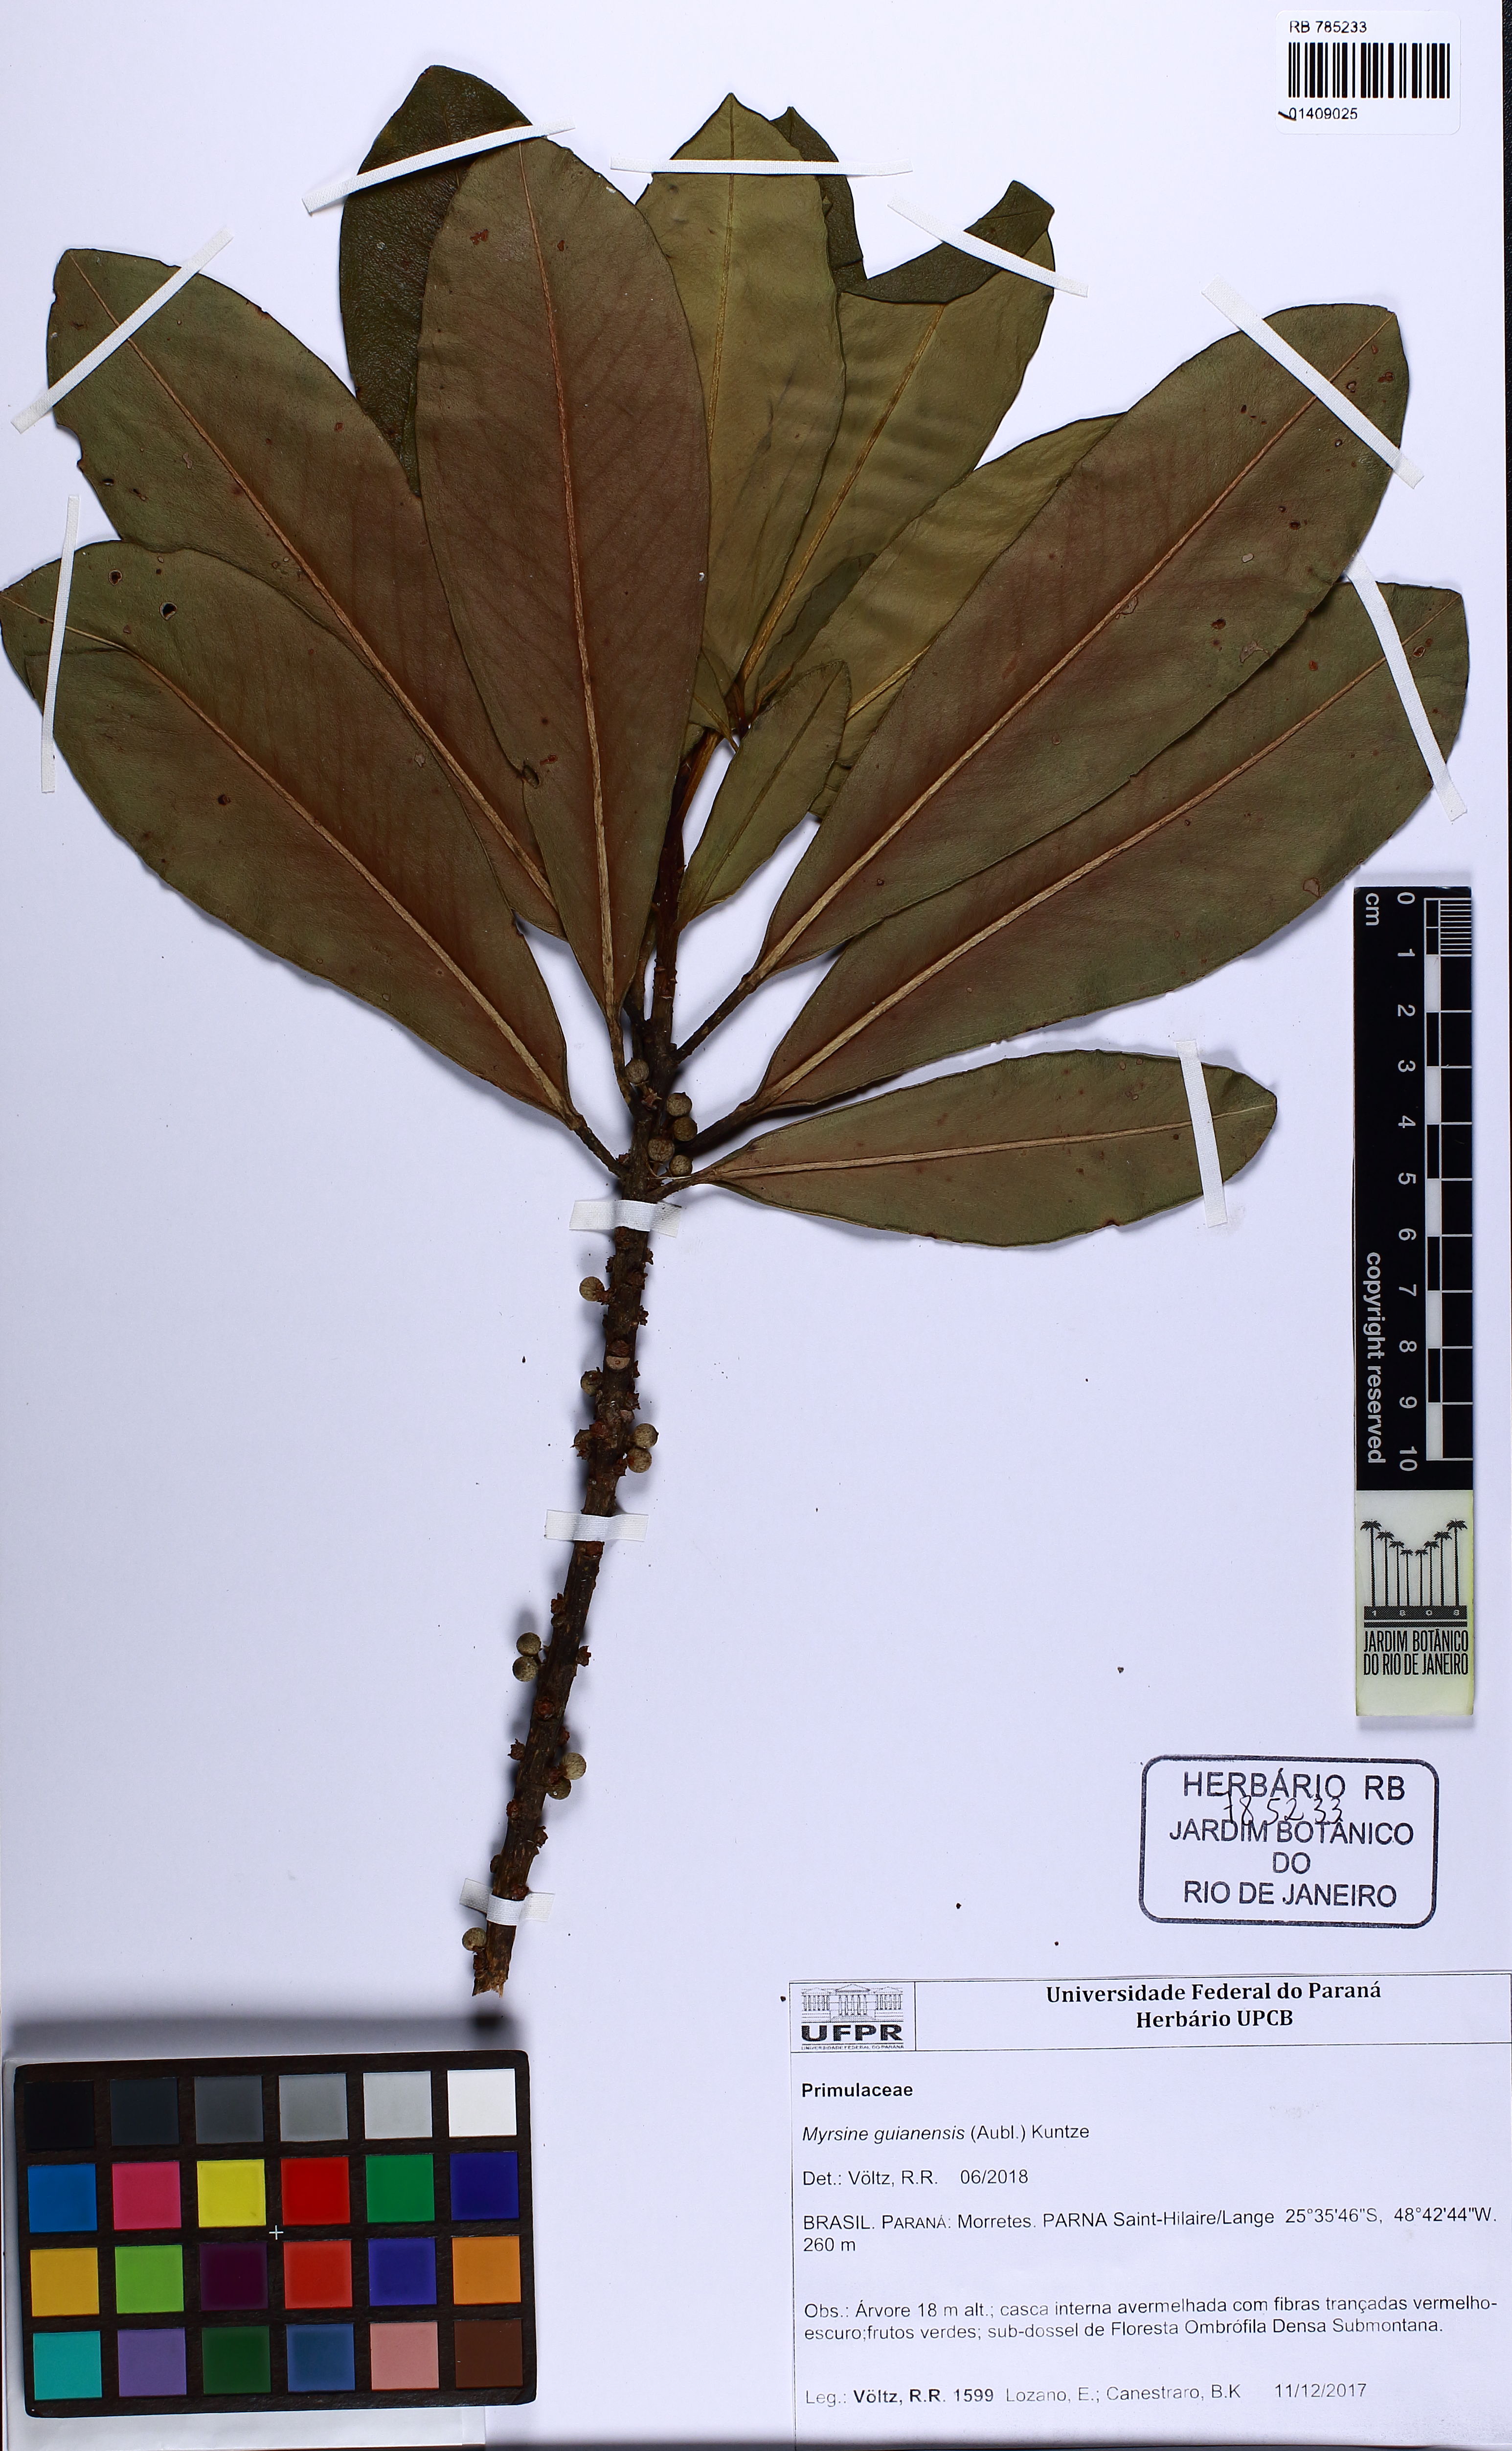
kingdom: Plantae
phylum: Tracheophyta
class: Magnoliopsida
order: Ericales
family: Primulaceae
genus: Myrsine
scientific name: Myrsine guianensis
